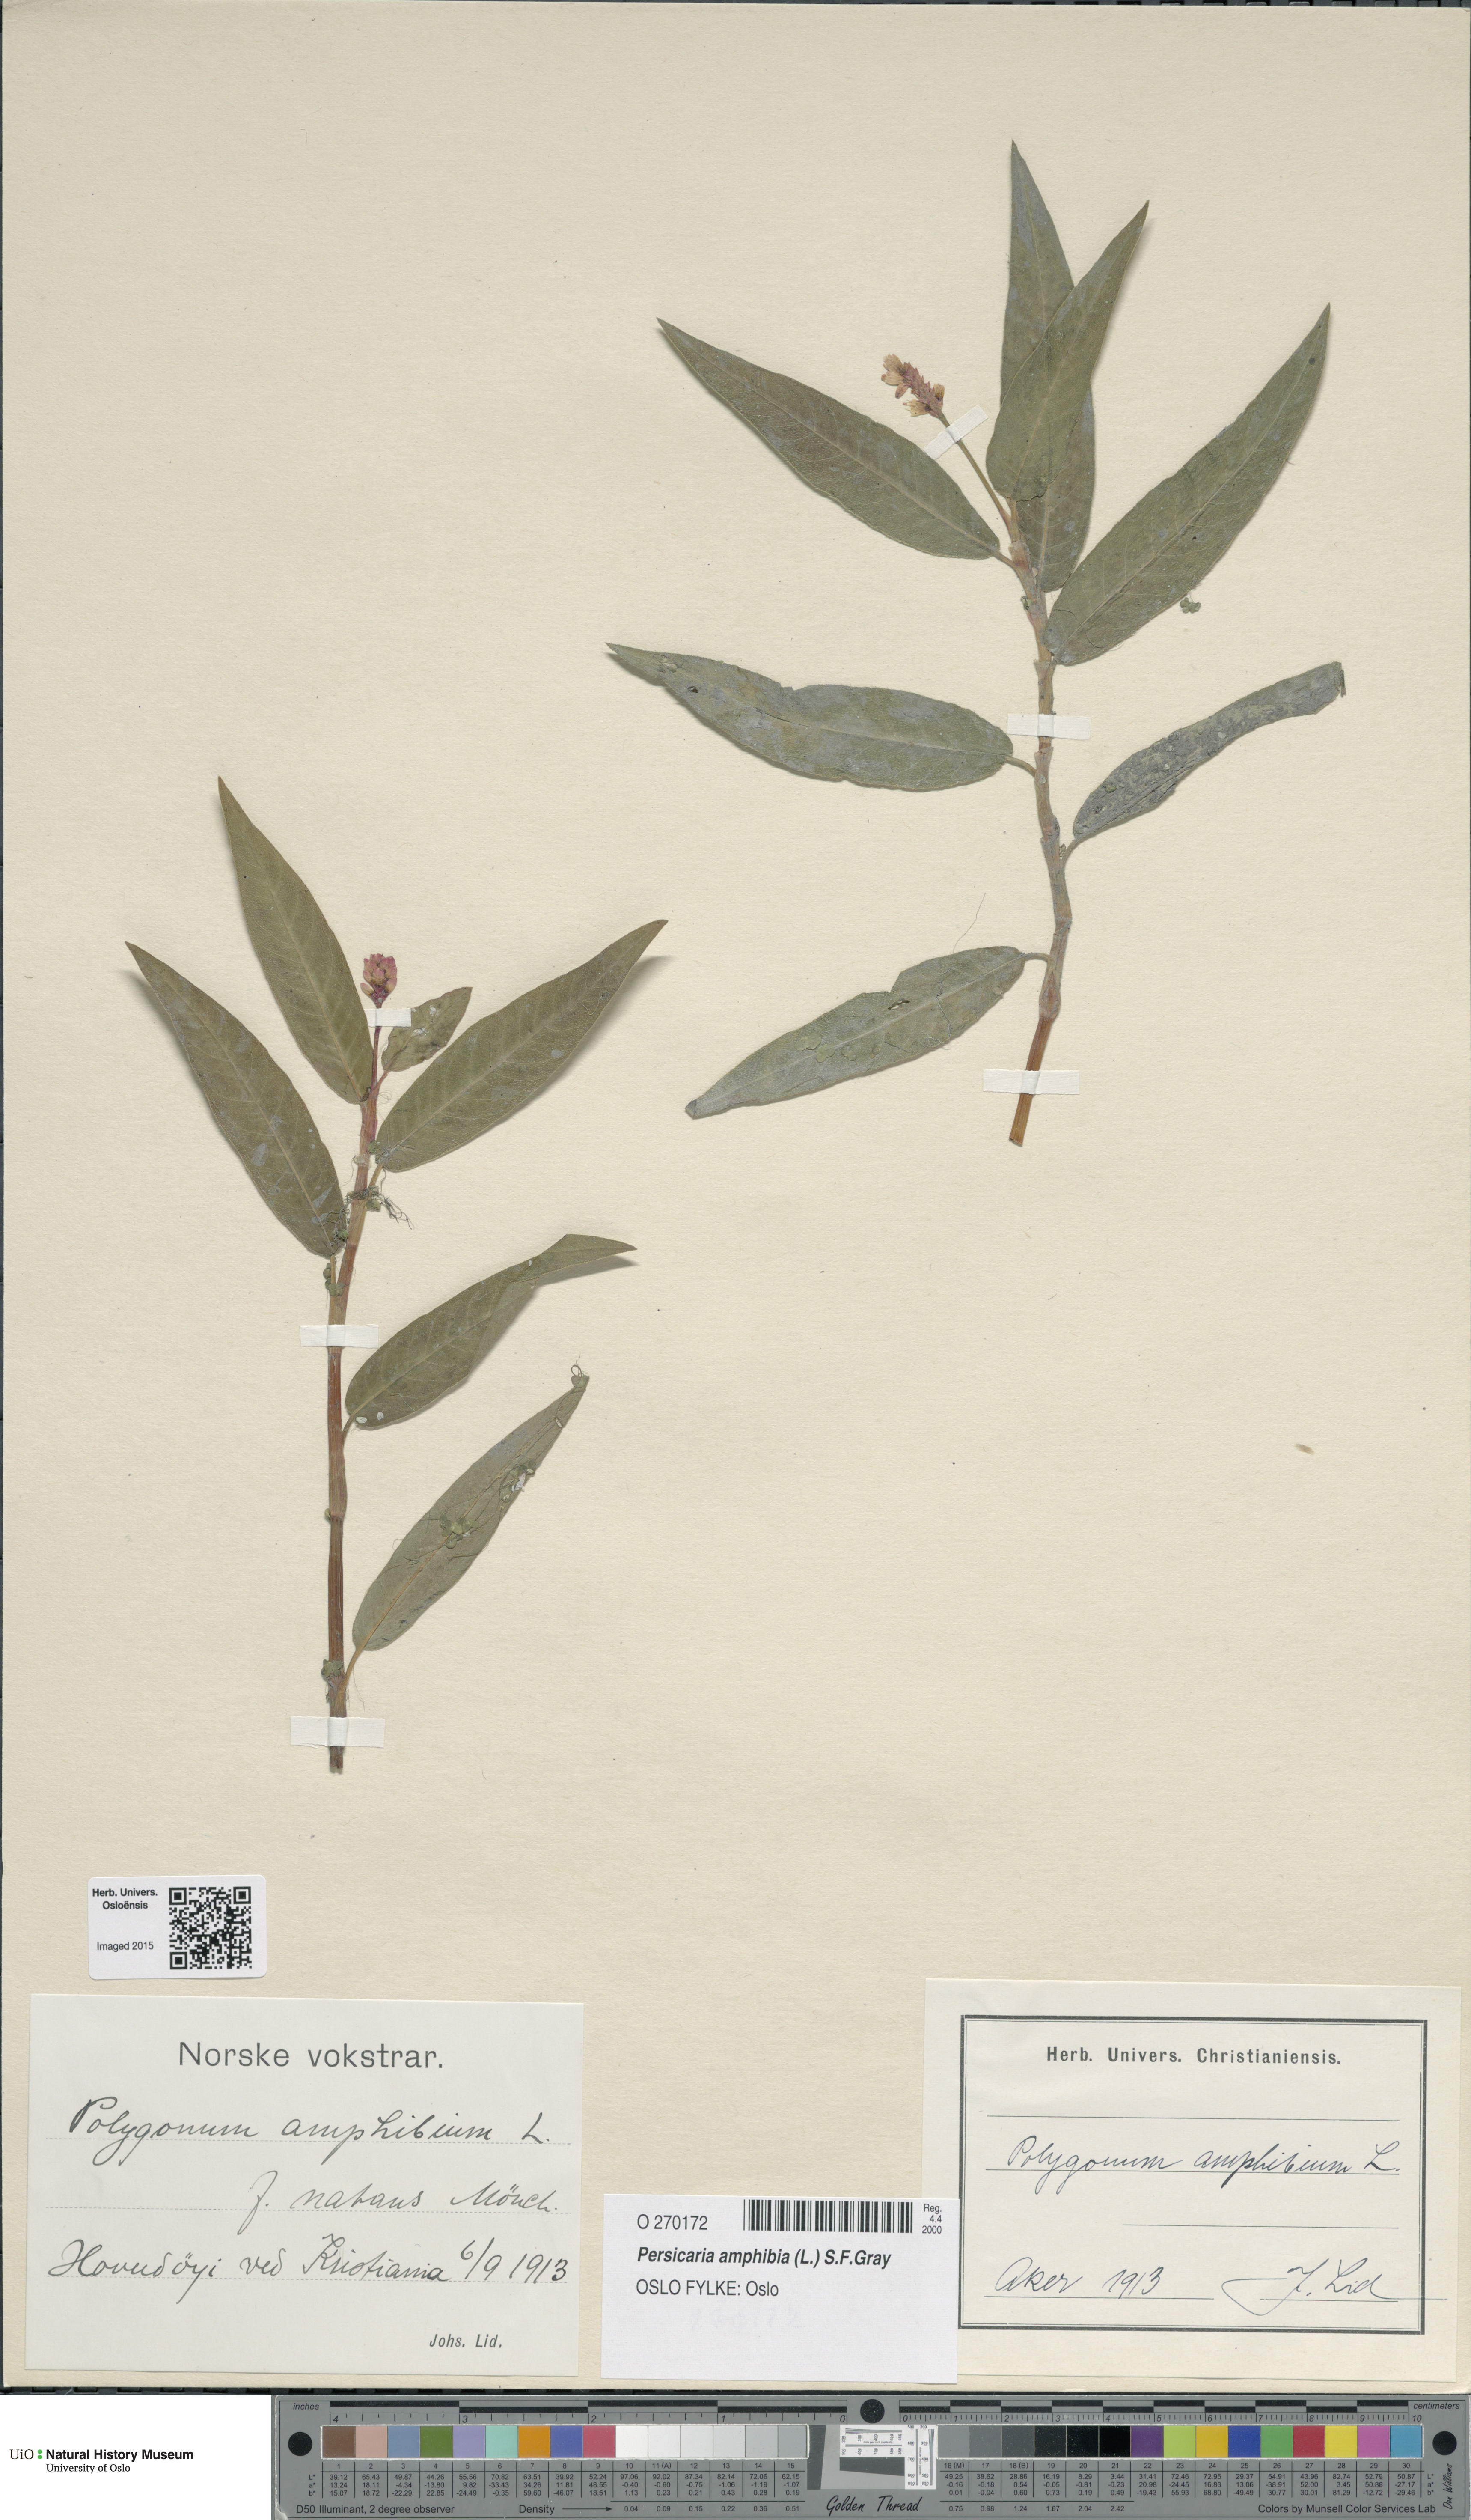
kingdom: Plantae
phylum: Tracheophyta
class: Magnoliopsida
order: Caryophyllales
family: Polygonaceae
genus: Persicaria
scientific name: Persicaria amphibia
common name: Amphibious bistort
